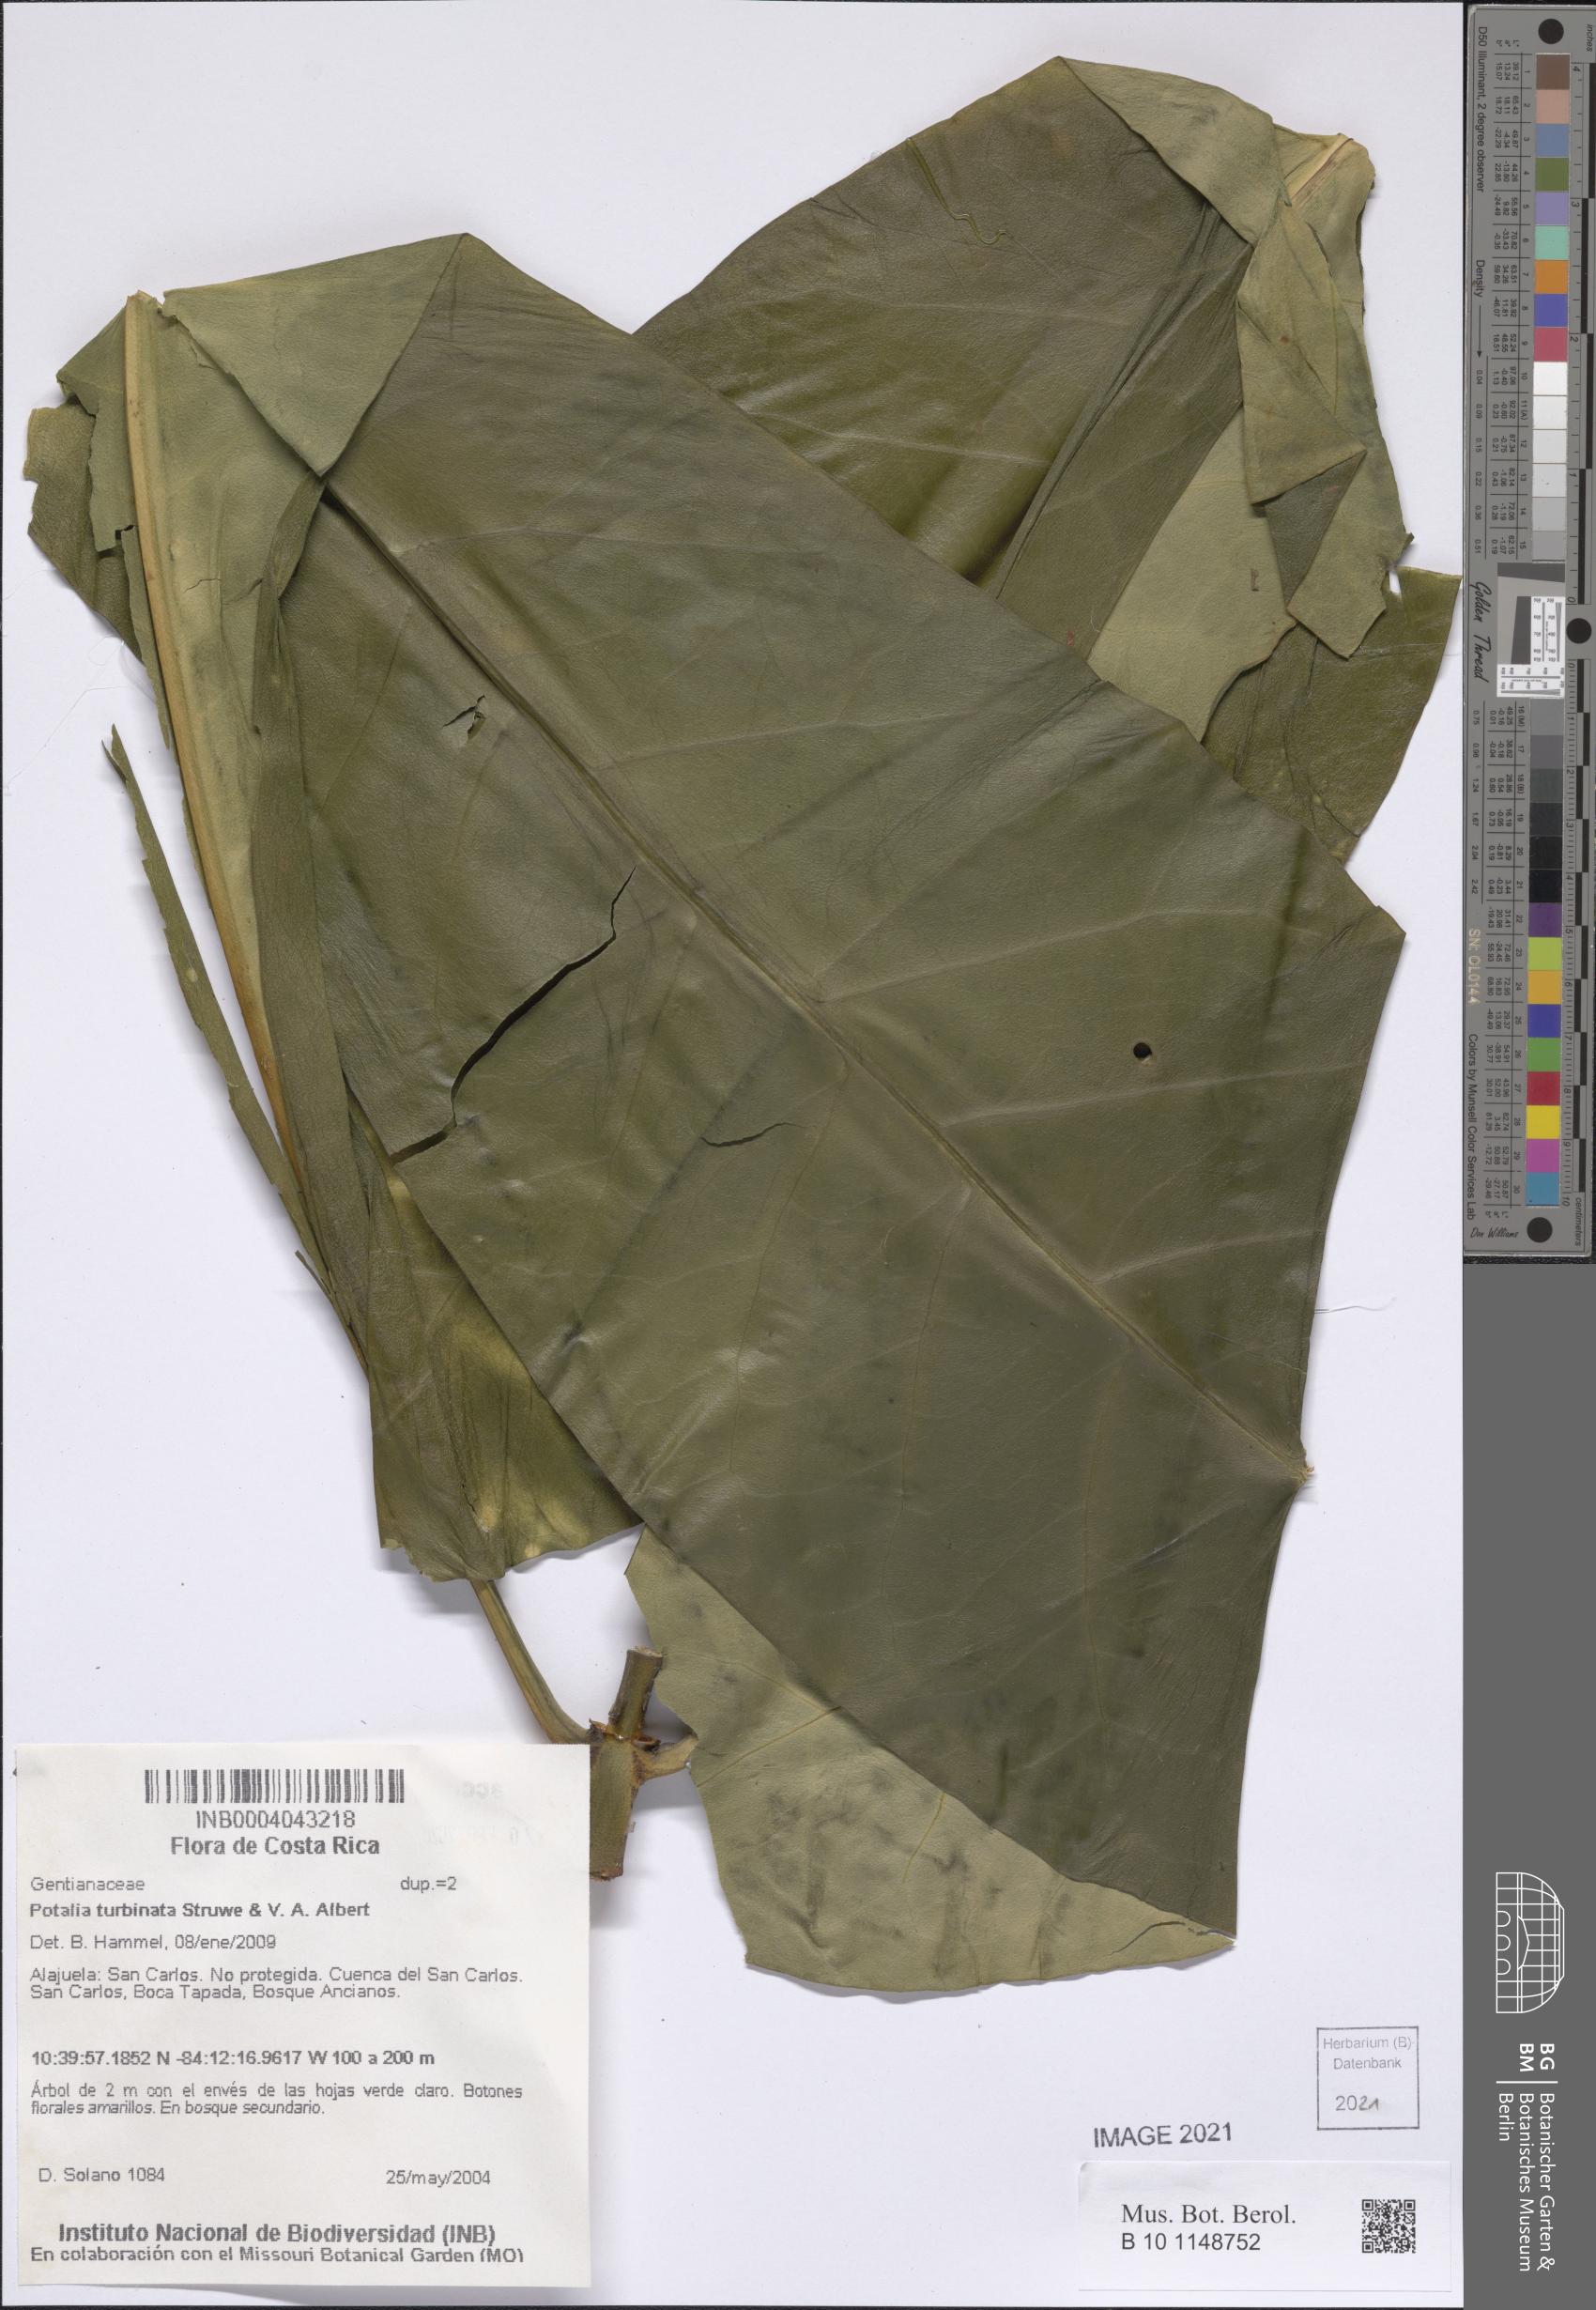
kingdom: Plantae
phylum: Tracheophyta
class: Magnoliopsida
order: Gentianales
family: Gentianaceae
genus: Potalia
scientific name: Potalia turbinata
